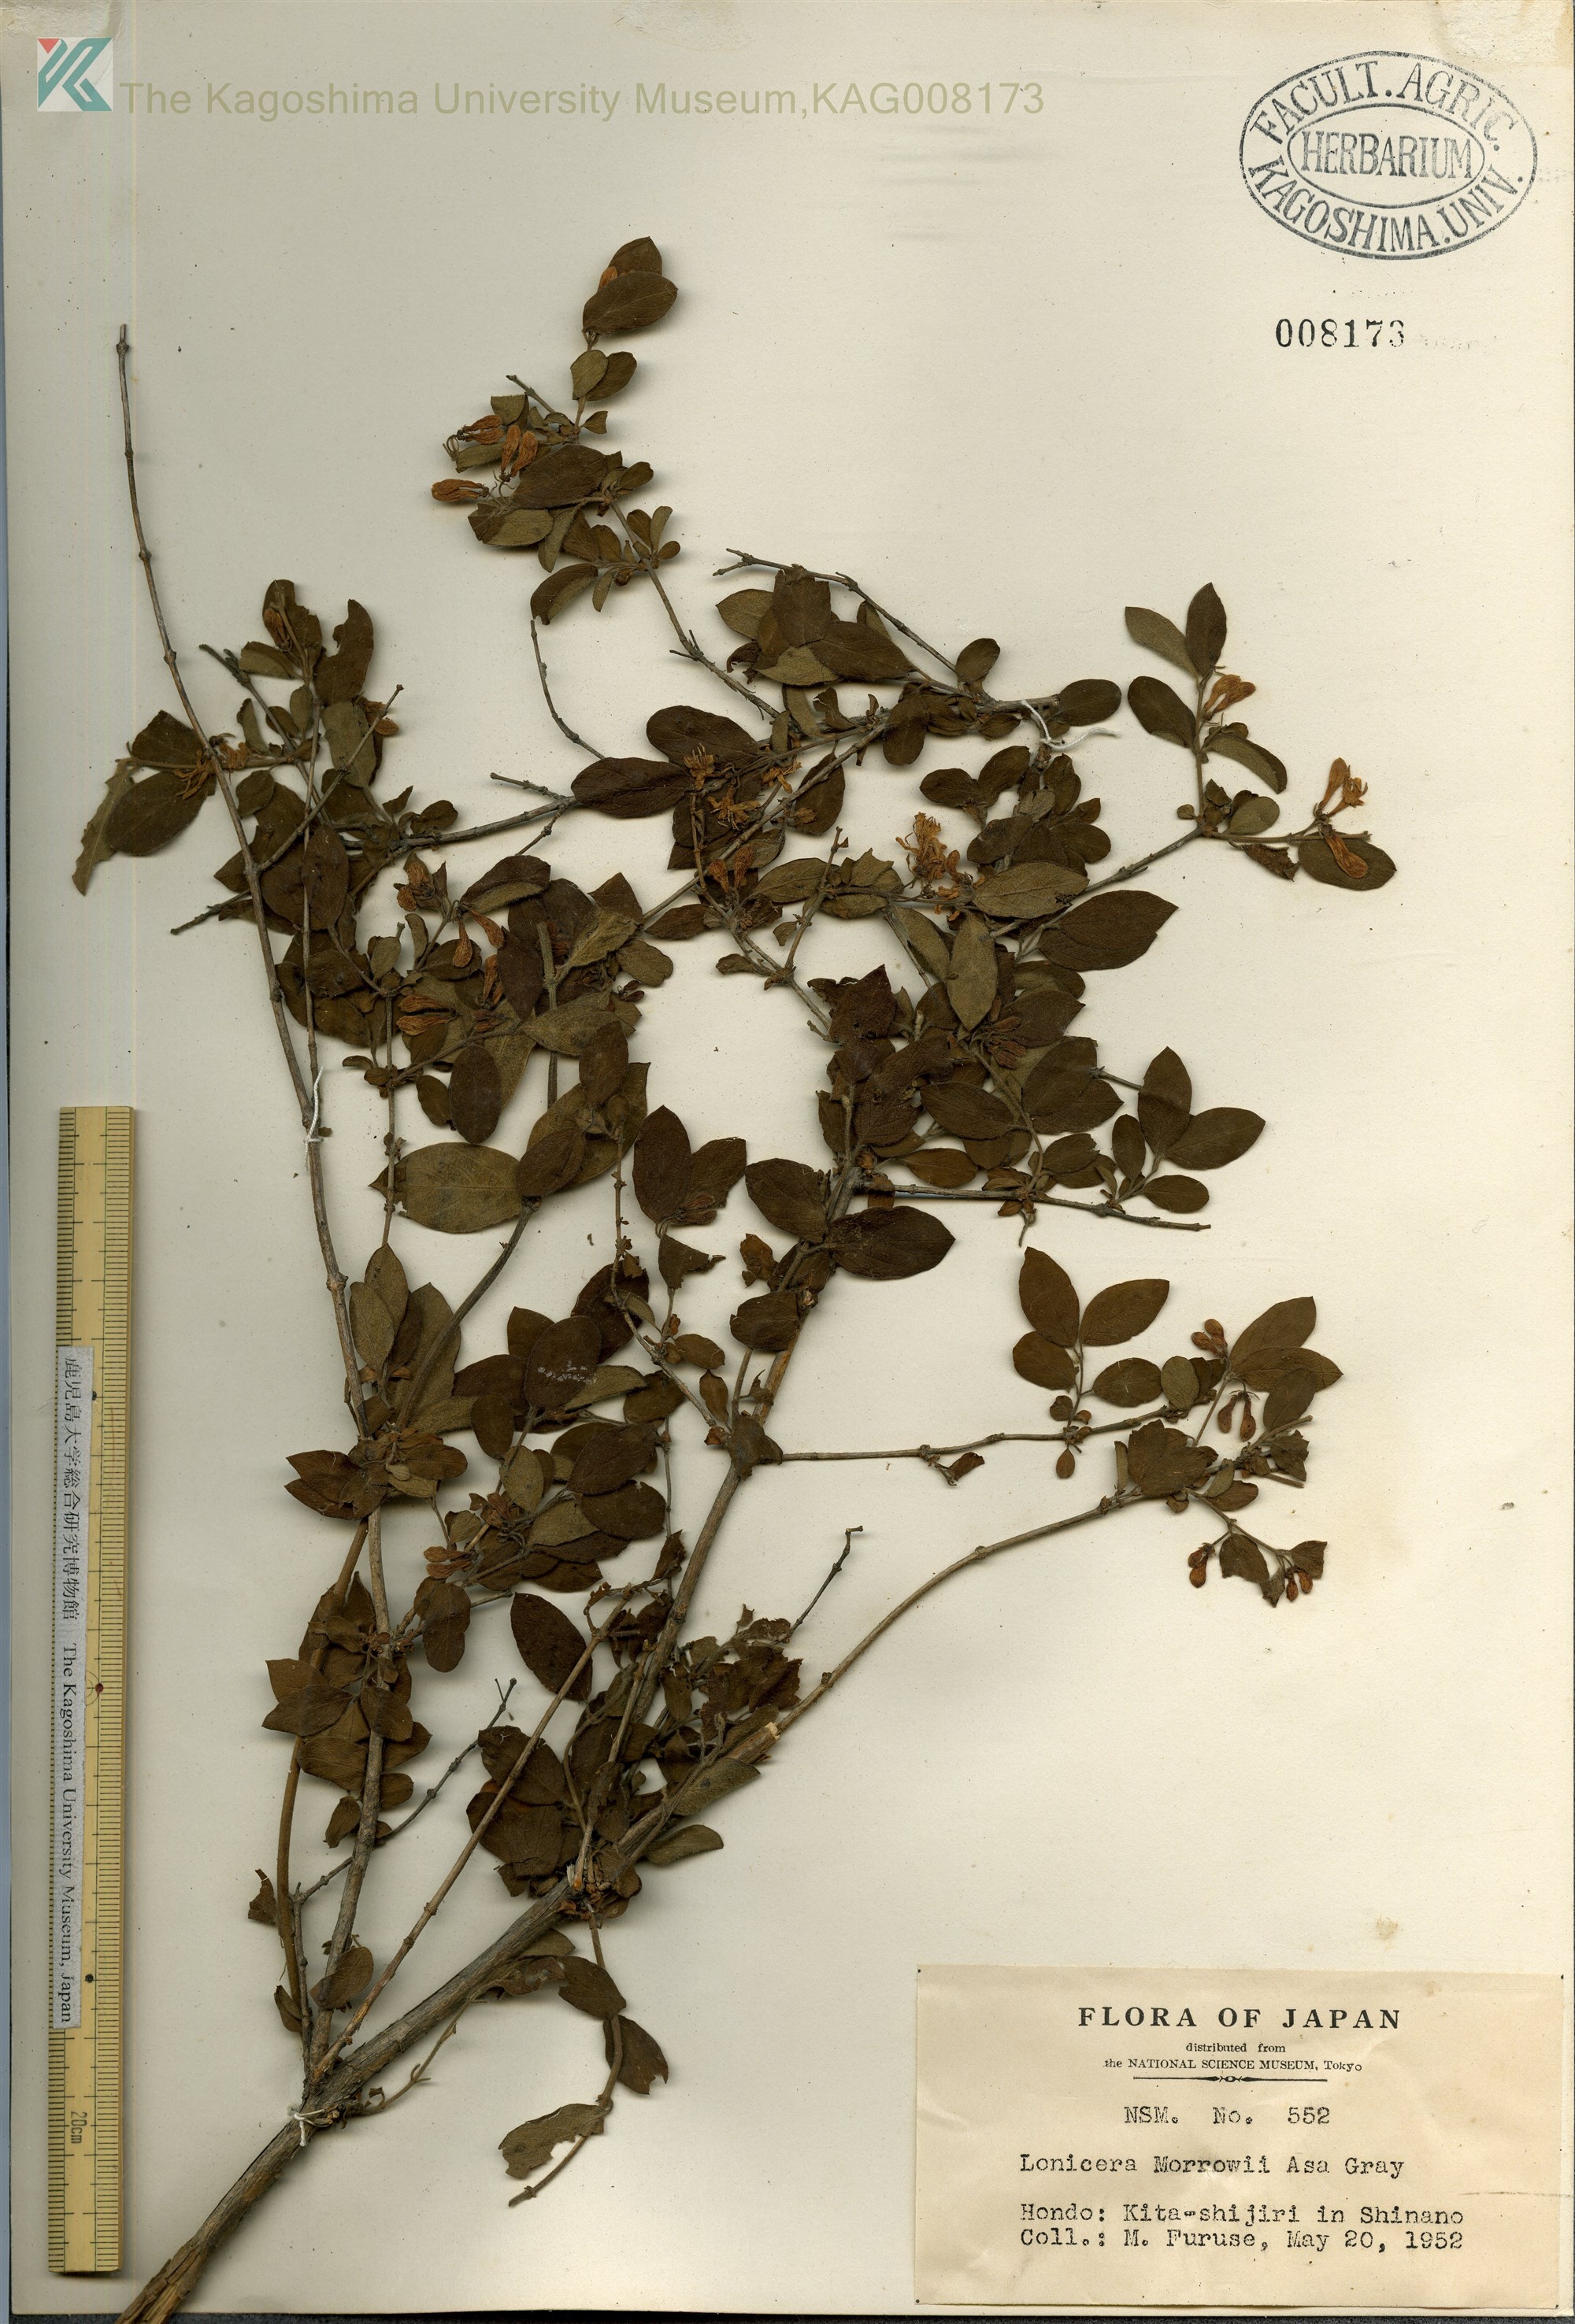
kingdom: Plantae
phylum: Tracheophyta
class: Magnoliopsida
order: Dipsacales
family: Caprifoliaceae
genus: Lonicera
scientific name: Lonicera morrowii
